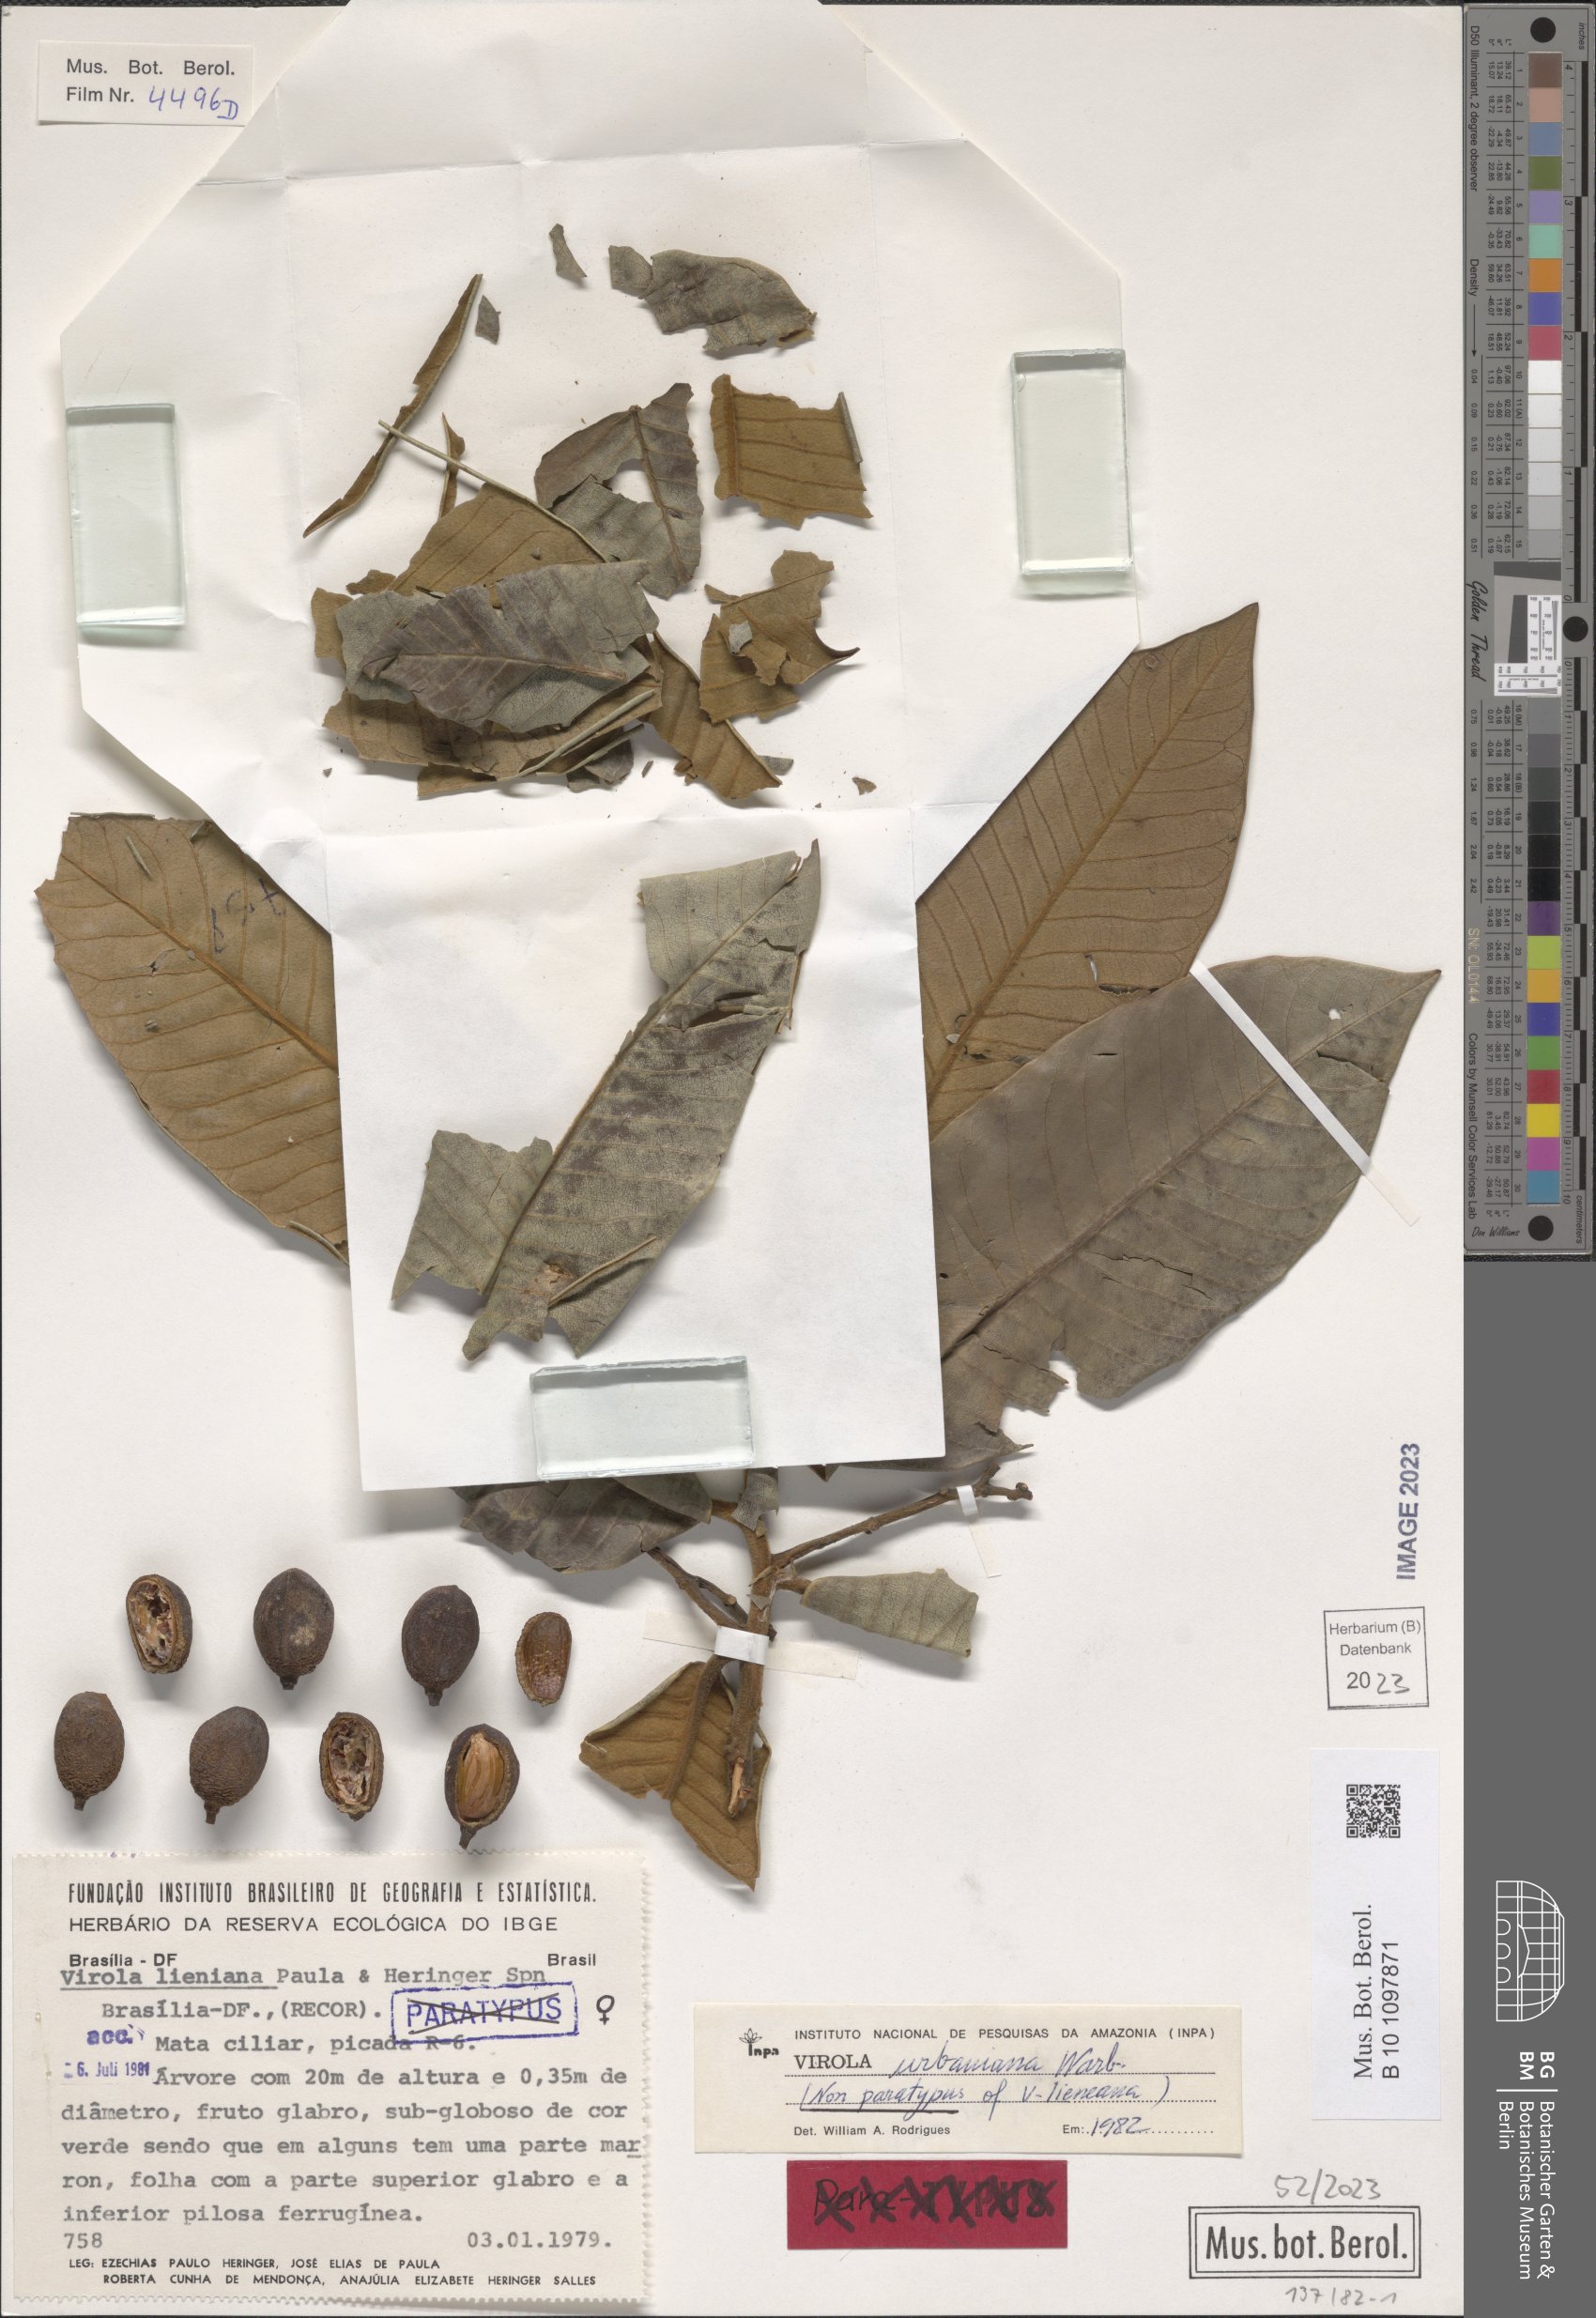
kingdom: Plantae
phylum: Tracheophyta
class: Magnoliopsida
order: Magnoliales
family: Myristicaceae
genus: Virola
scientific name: Virola urbaniana
